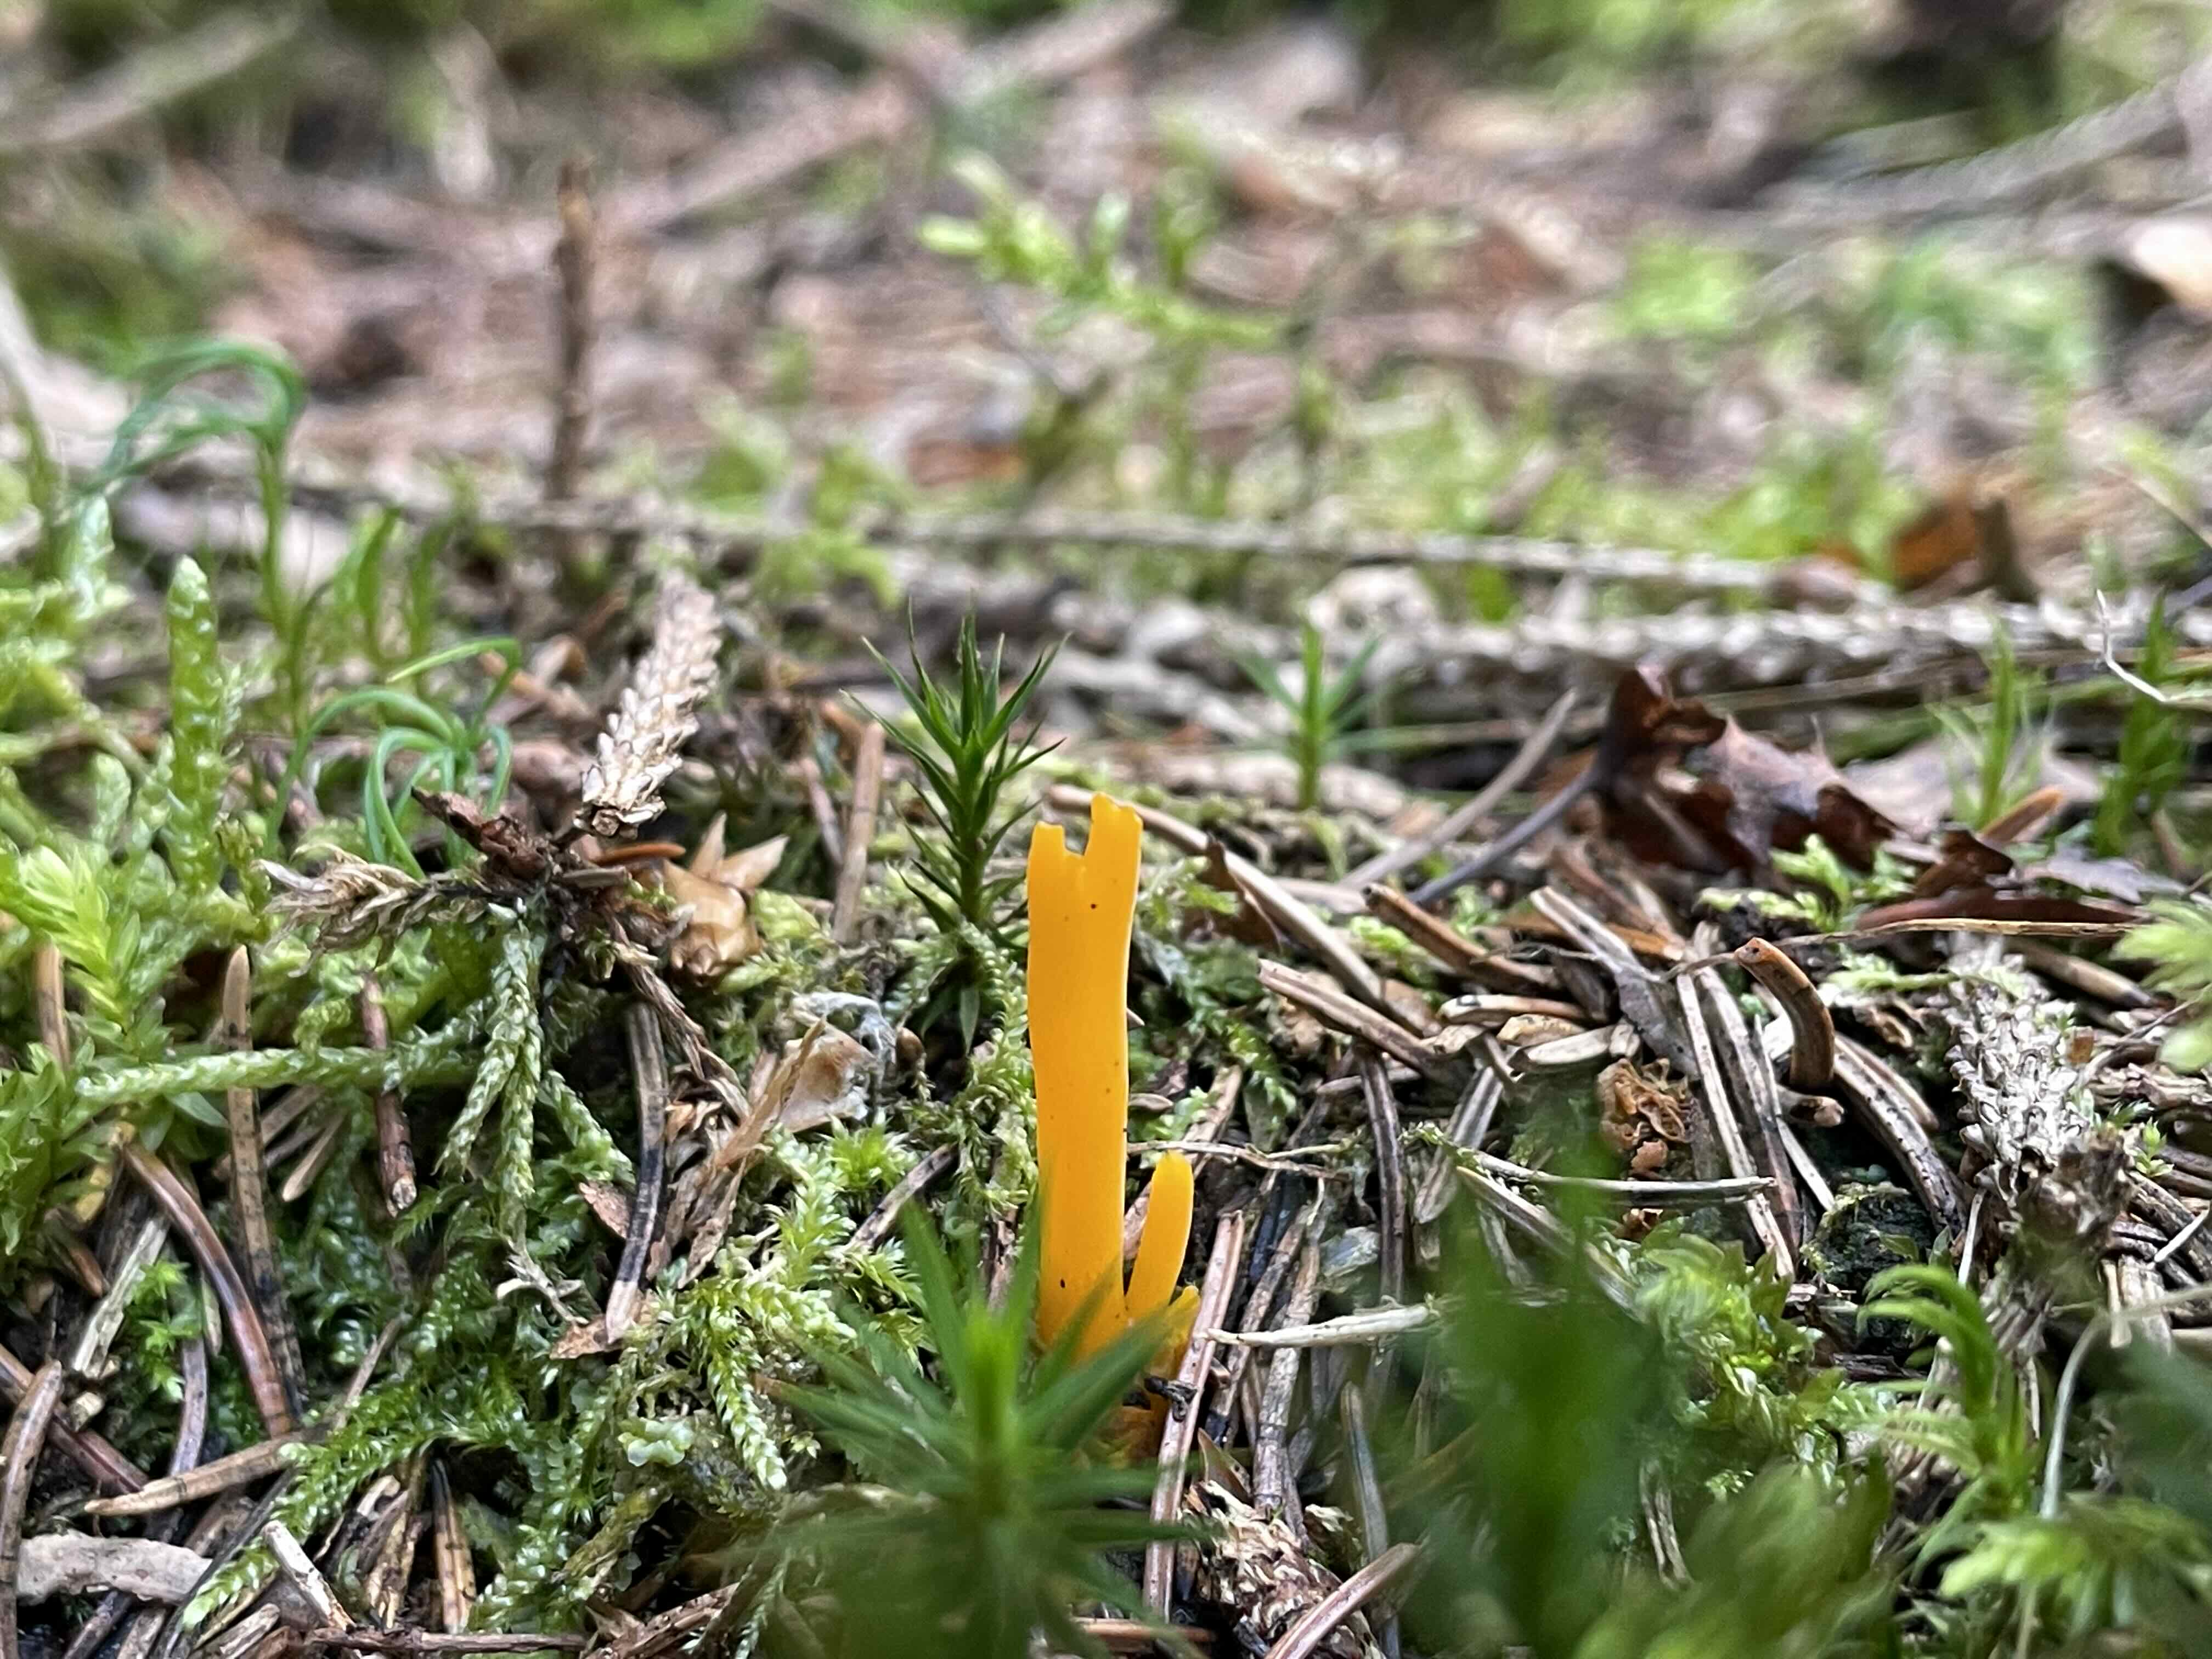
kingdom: Fungi
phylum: Basidiomycota
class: Dacrymycetes
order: Dacrymycetales
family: Dacrymycetaceae
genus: Calocera
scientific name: Calocera viscosa
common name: almindelig guldgaffel
